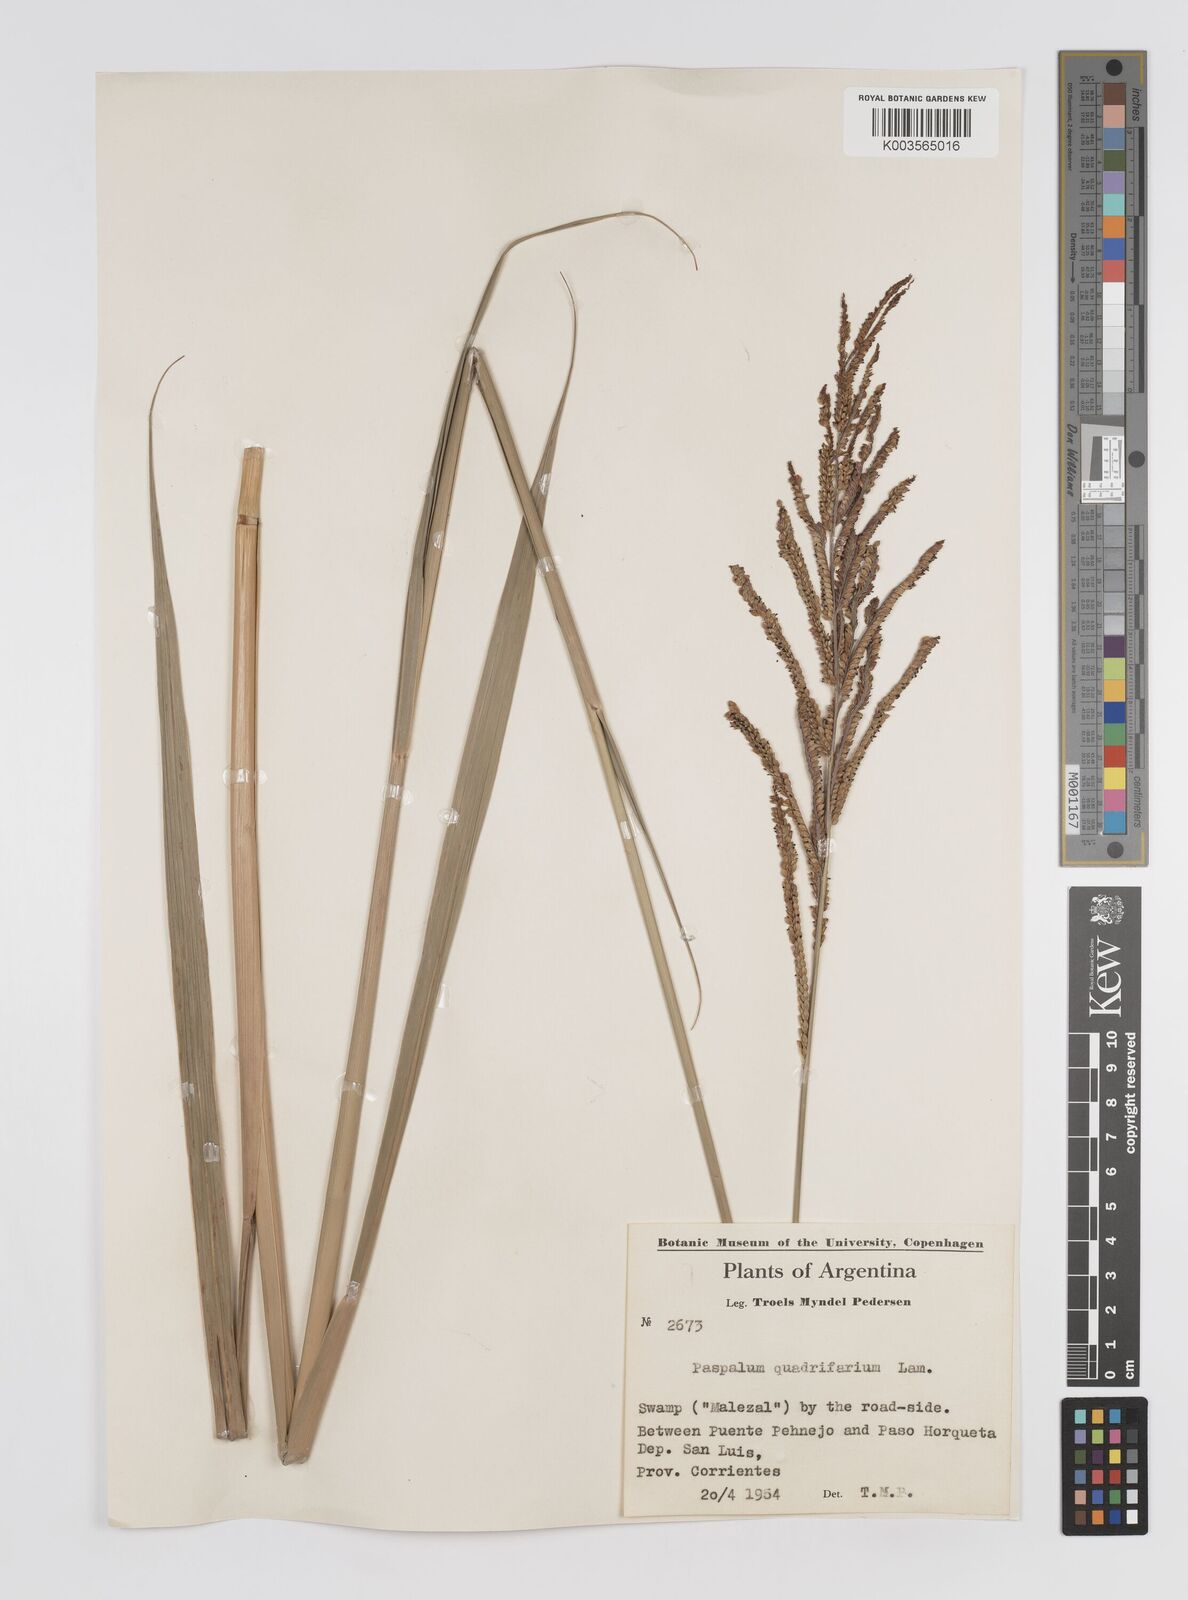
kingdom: Plantae
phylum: Tracheophyta
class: Liliopsida
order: Poales
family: Poaceae
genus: Paspalum
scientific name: Paspalum intermedium
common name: Intermediate paspalum
